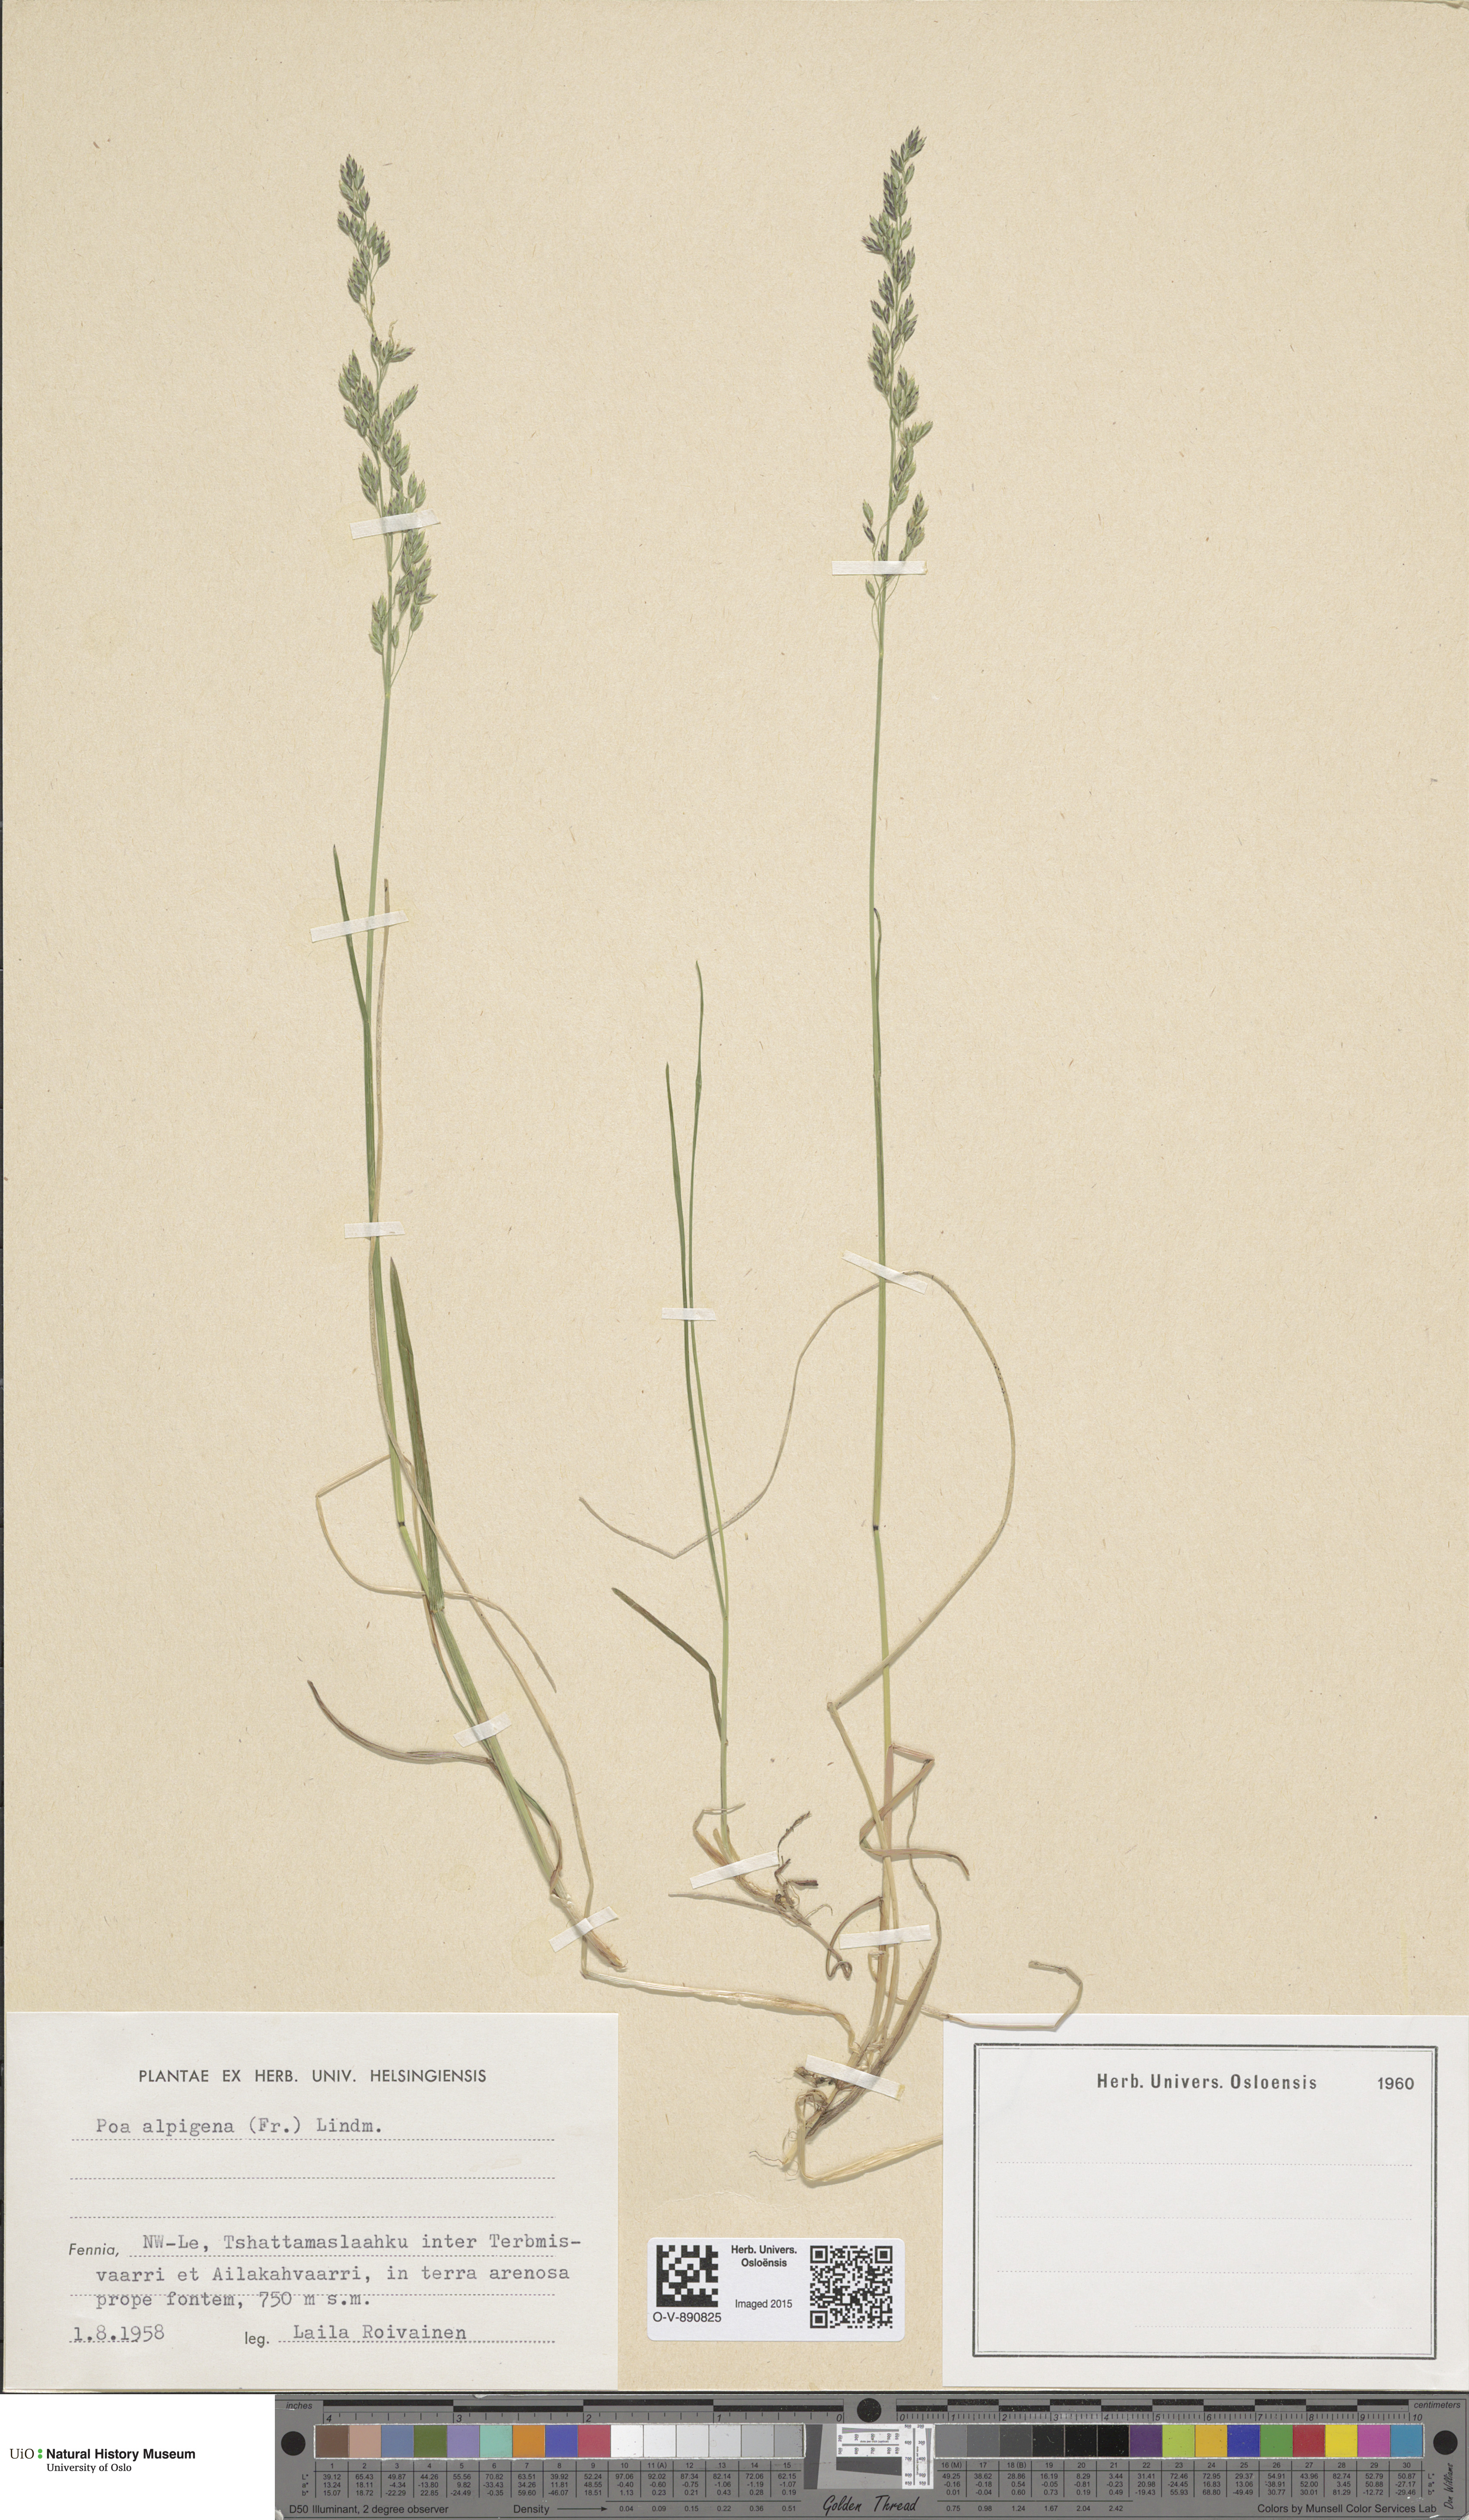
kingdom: Plantae
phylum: Tracheophyta
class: Liliopsida
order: Poales
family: Poaceae
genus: Poa
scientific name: Poa alpigena
